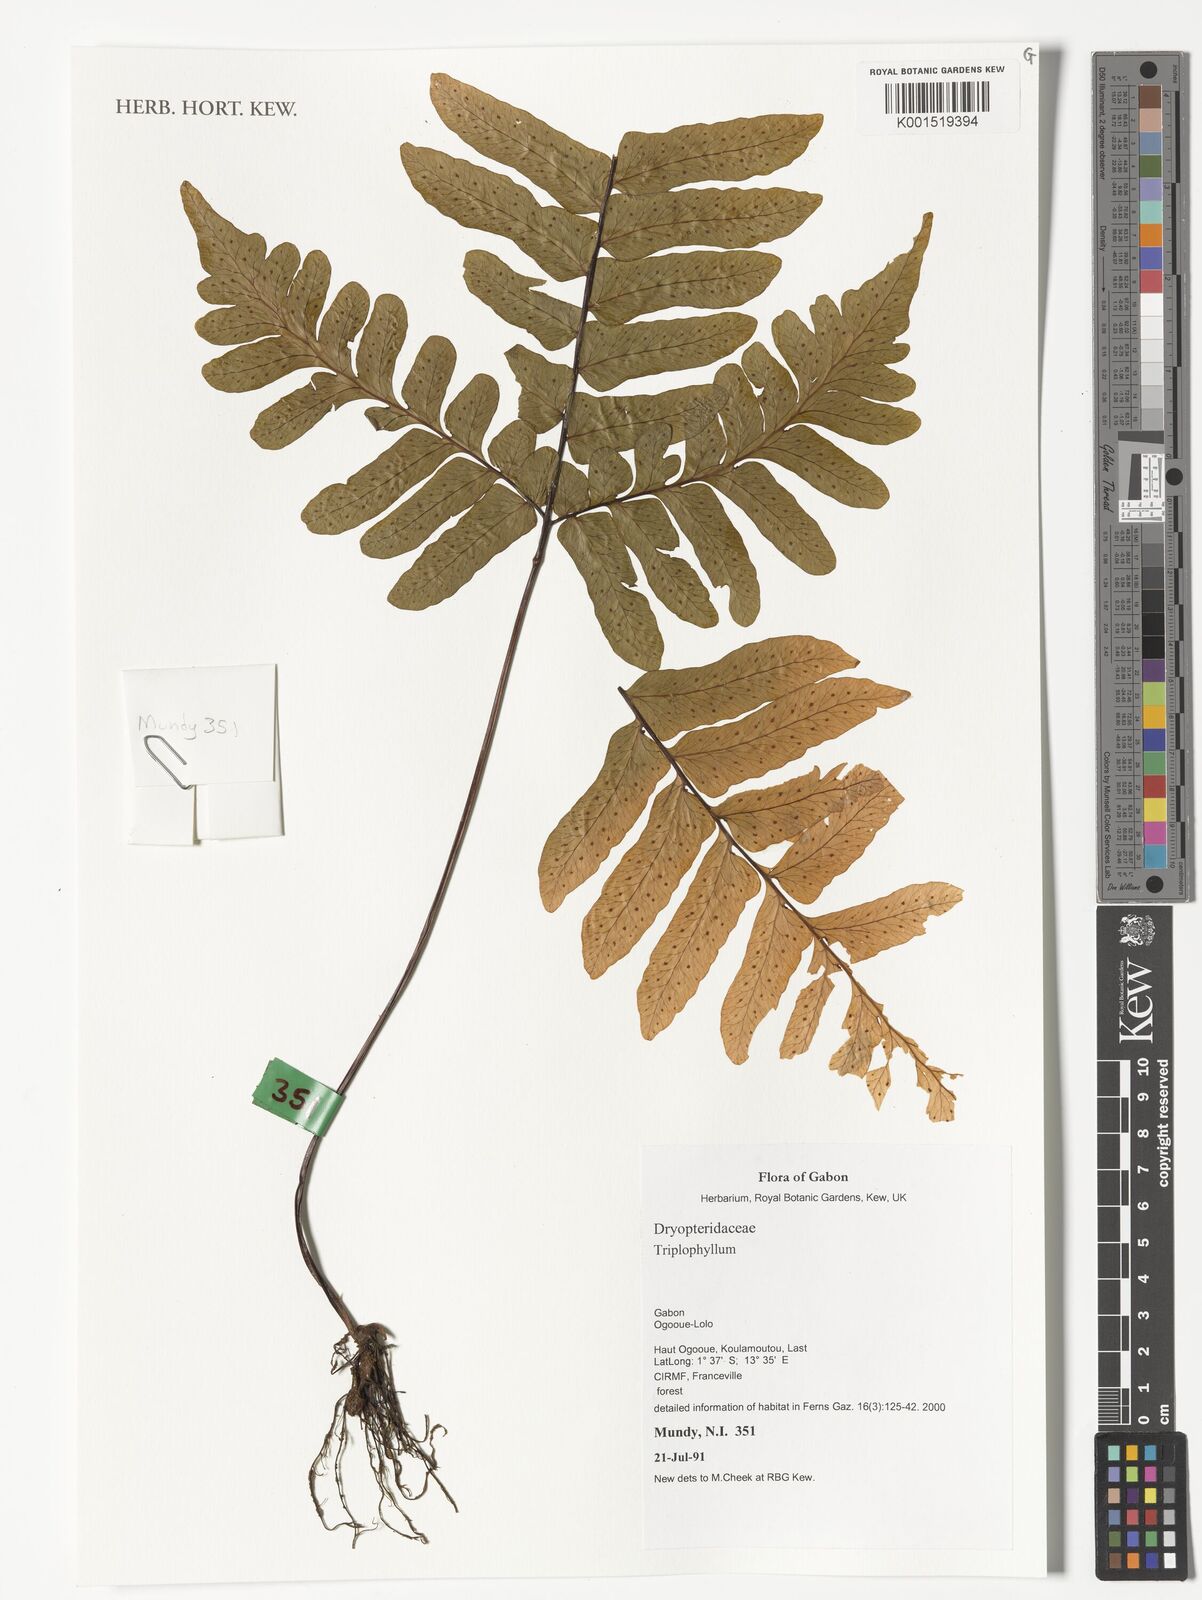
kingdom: Plantae
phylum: Tracheophyta
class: Polypodiopsida
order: Polypodiales
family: Tectariaceae
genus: Triplophyllum
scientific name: Triplophyllum
